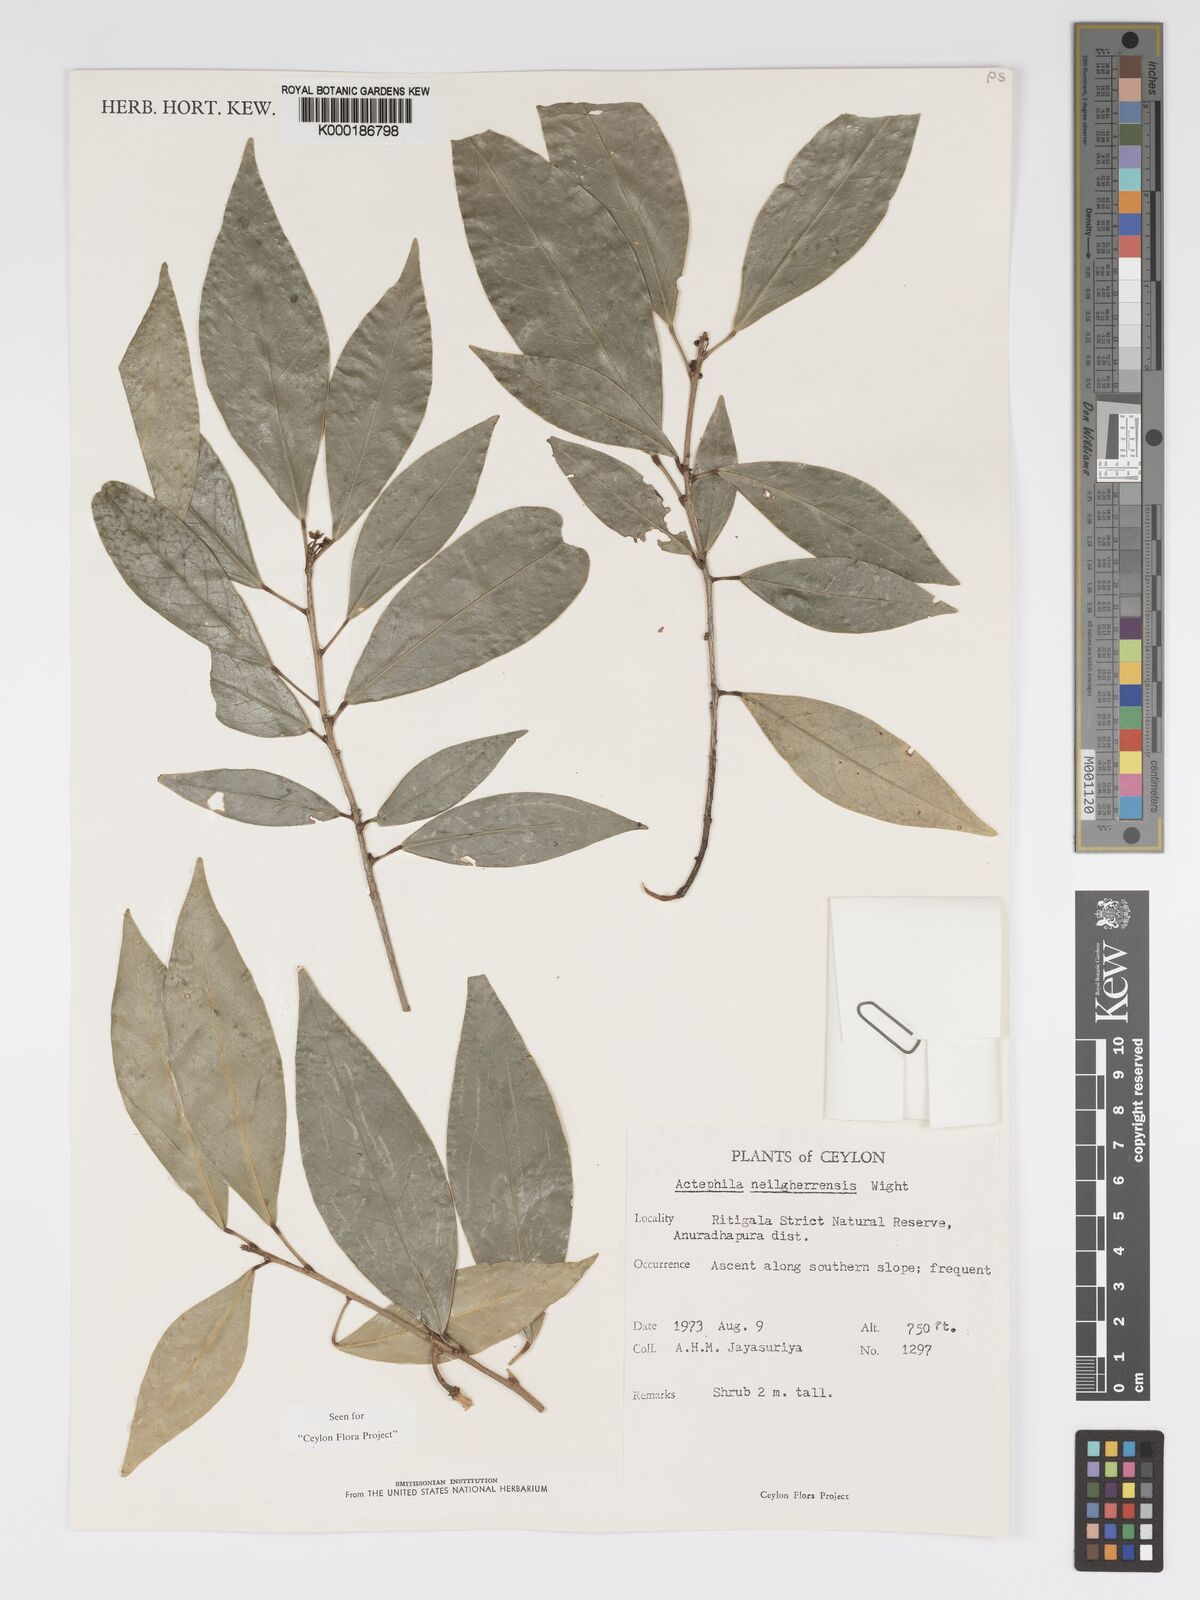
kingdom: Plantae
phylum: Tracheophyta
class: Magnoliopsida
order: Malpighiales
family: Phyllanthaceae
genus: Actephila
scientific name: Actephila excelsa
